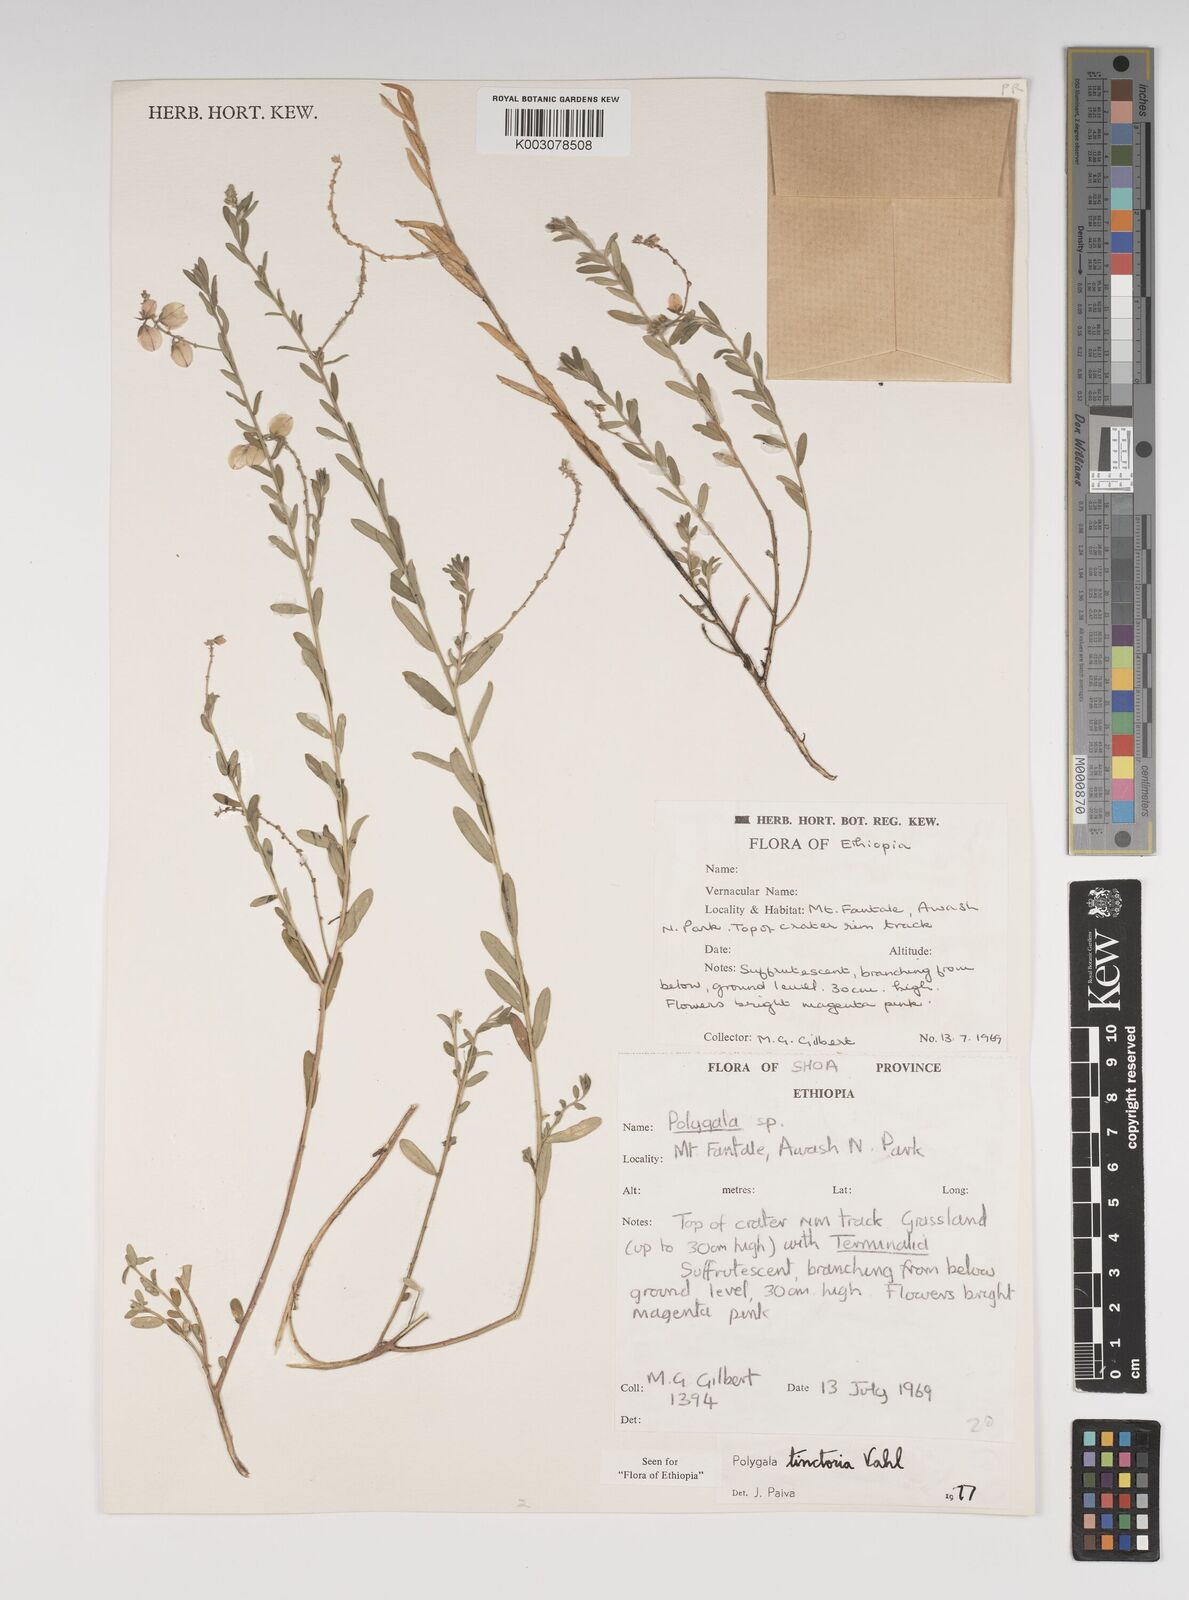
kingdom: Plantae
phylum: Tracheophyta
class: Magnoliopsida
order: Fabales
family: Polygalaceae
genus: Polygala
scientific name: Polygala tinctoria
